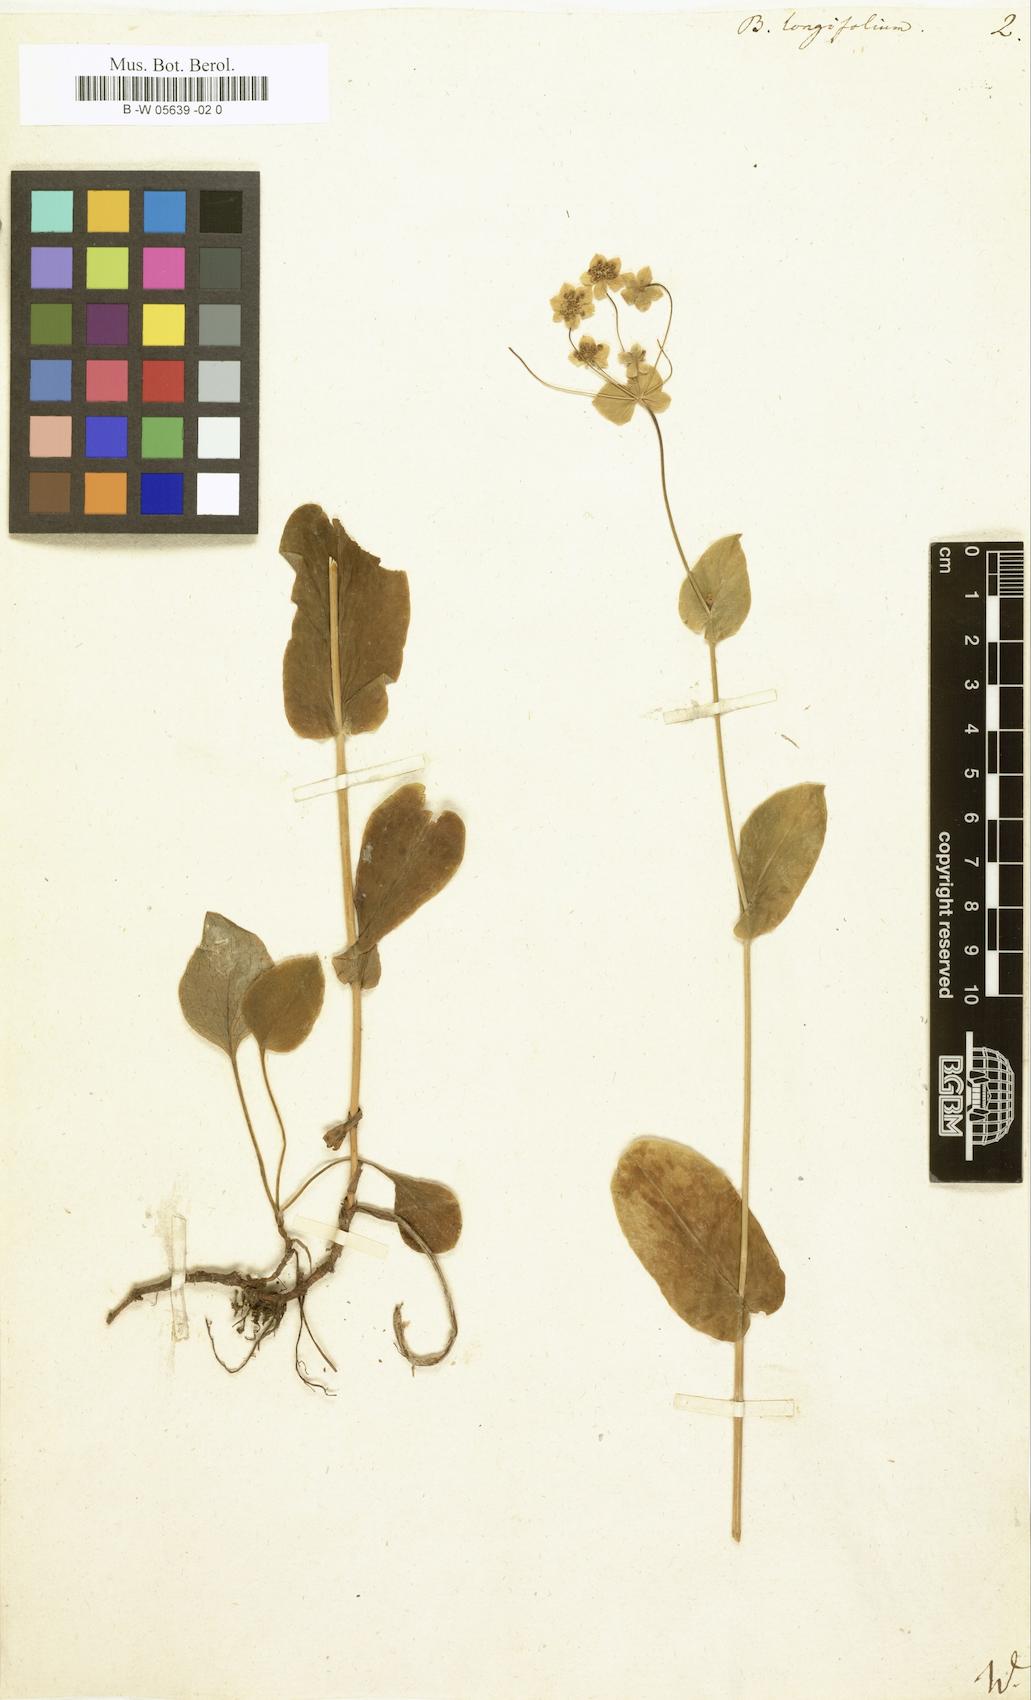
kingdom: Plantae
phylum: Tracheophyta
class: Magnoliopsida
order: Apiales
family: Apiaceae
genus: Bupleurum
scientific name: Bupleurum longifolium
